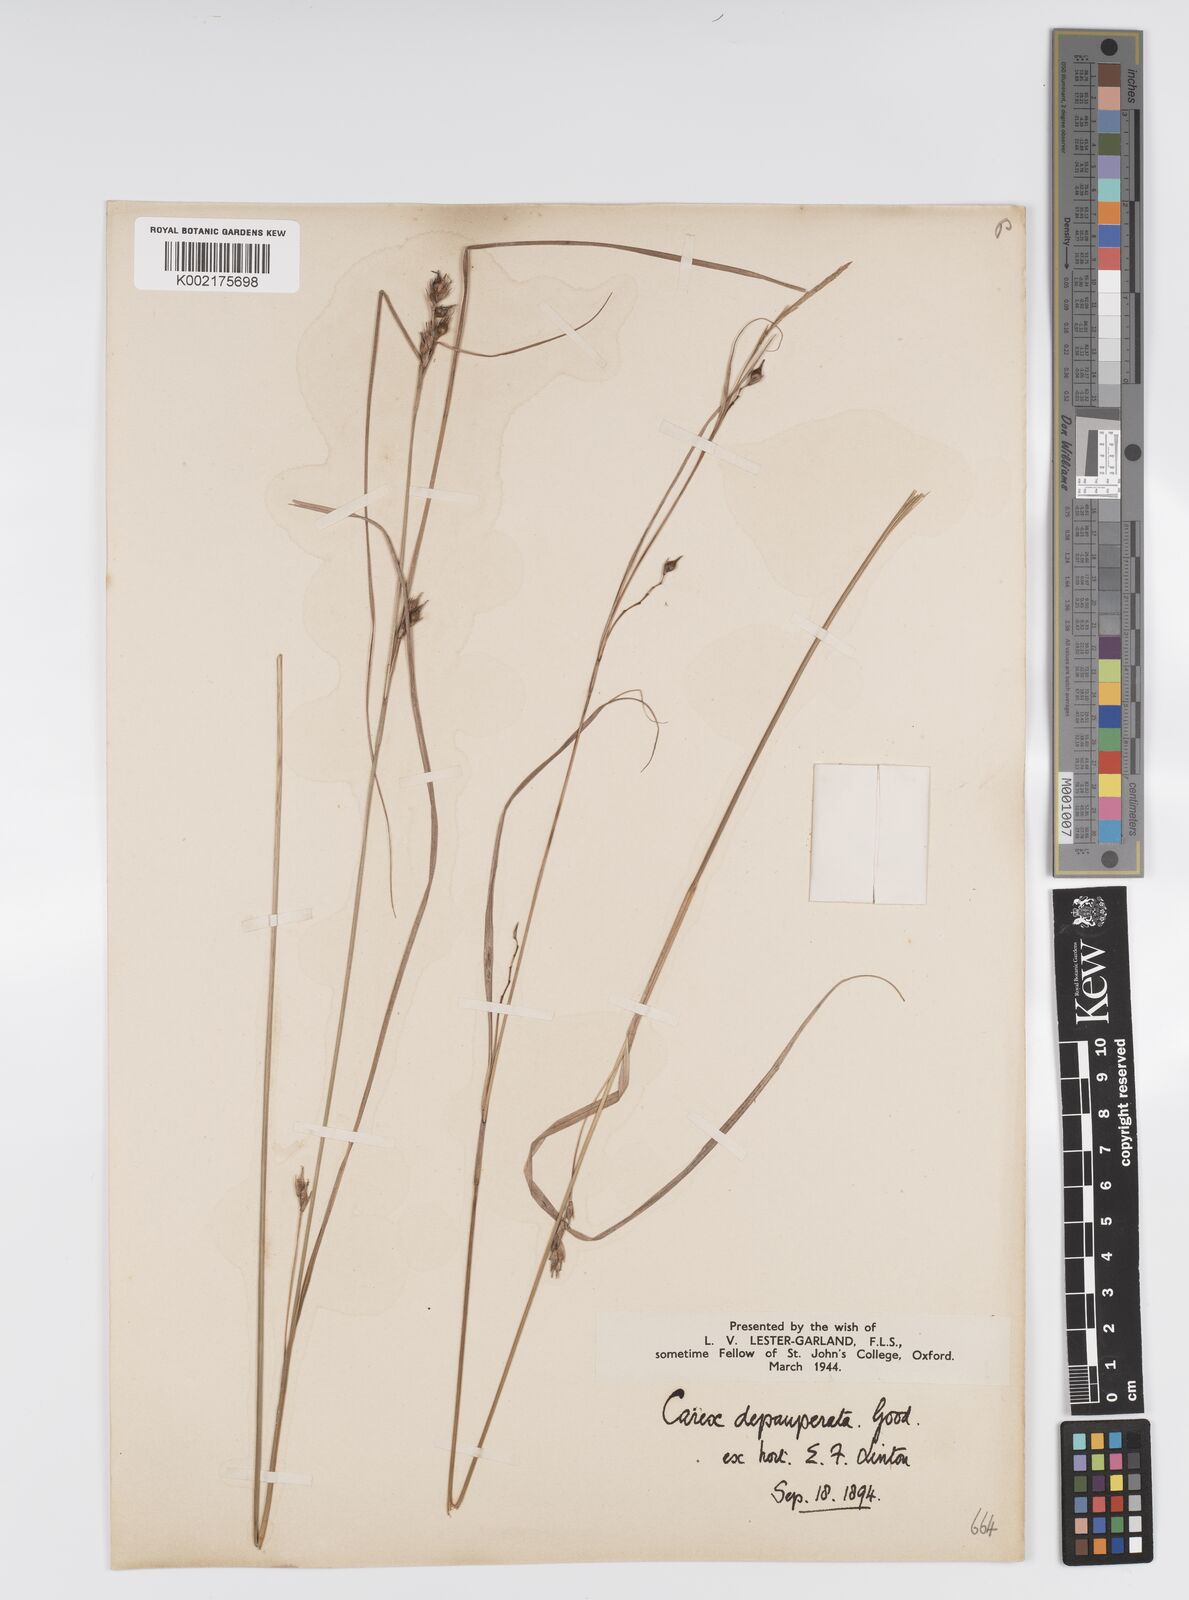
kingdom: Plantae
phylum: Tracheophyta
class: Liliopsida
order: Poales
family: Cyperaceae
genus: Carex
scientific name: Carex depauperata
